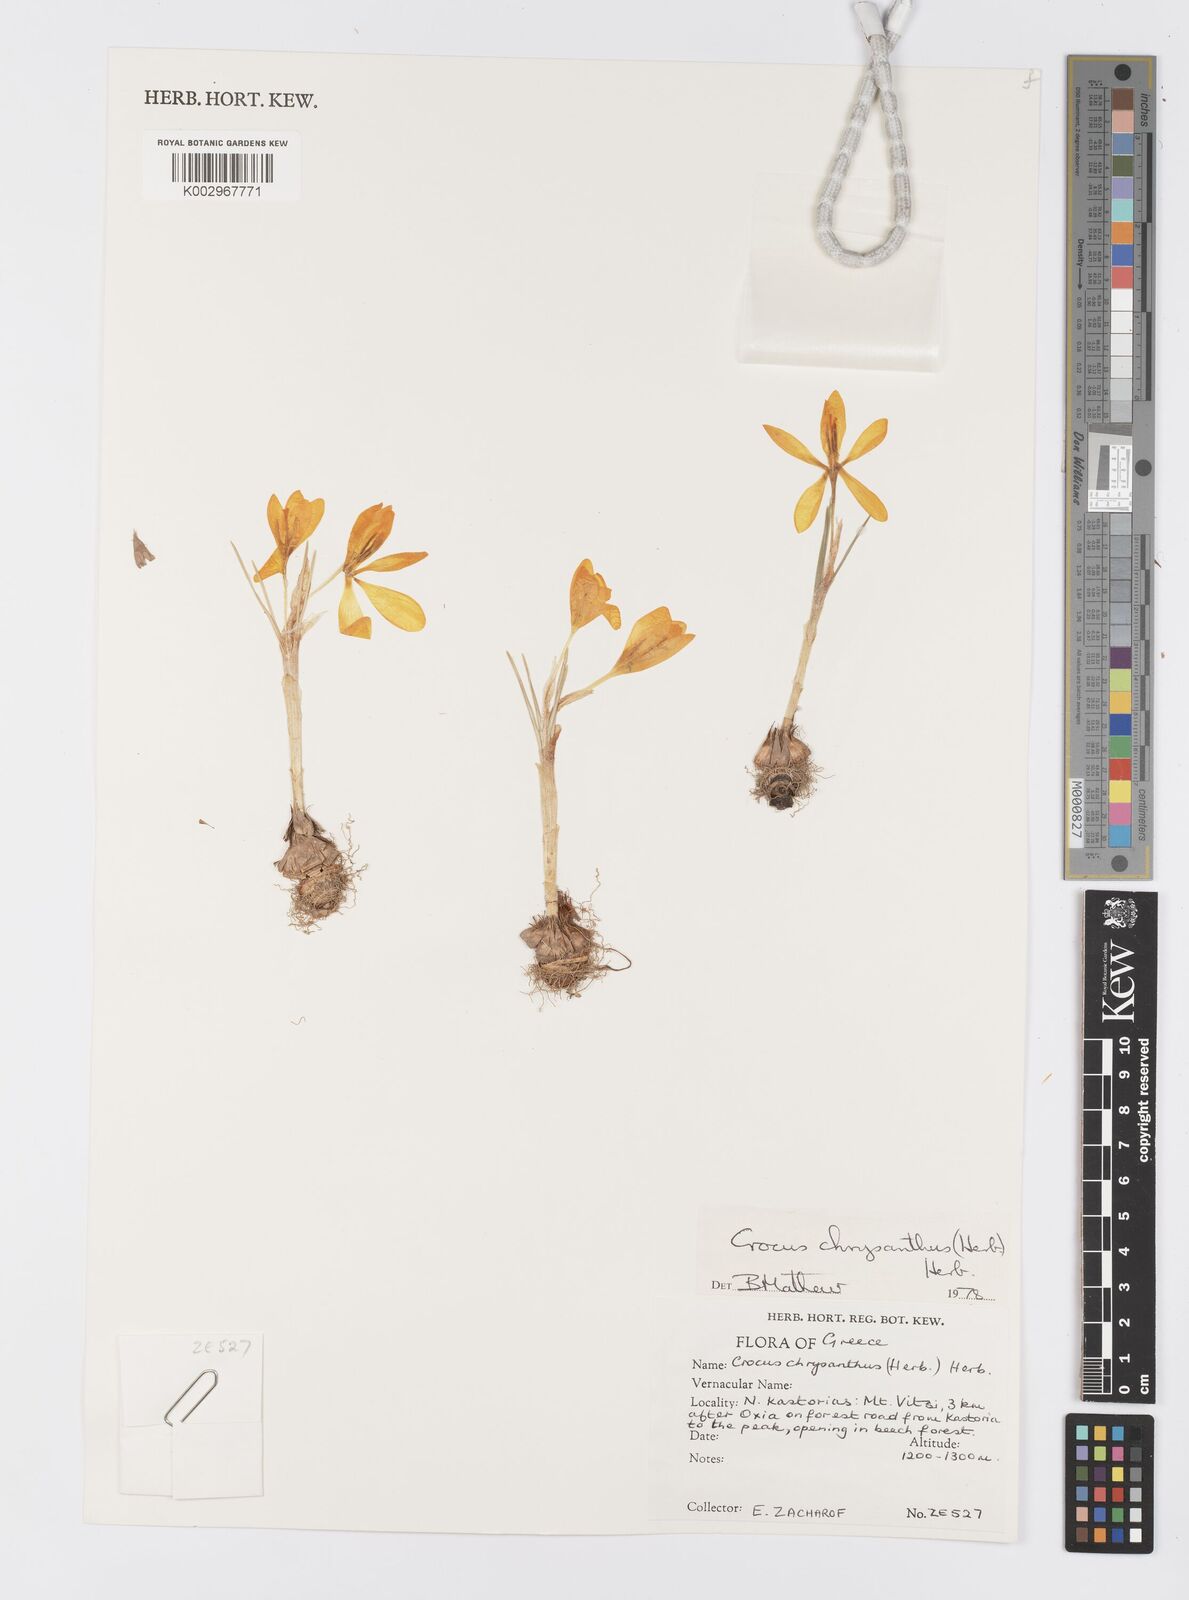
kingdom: Plantae
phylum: Tracheophyta
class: Liliopsida
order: Asparagales
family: Iridaceae
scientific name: Iridaceae
